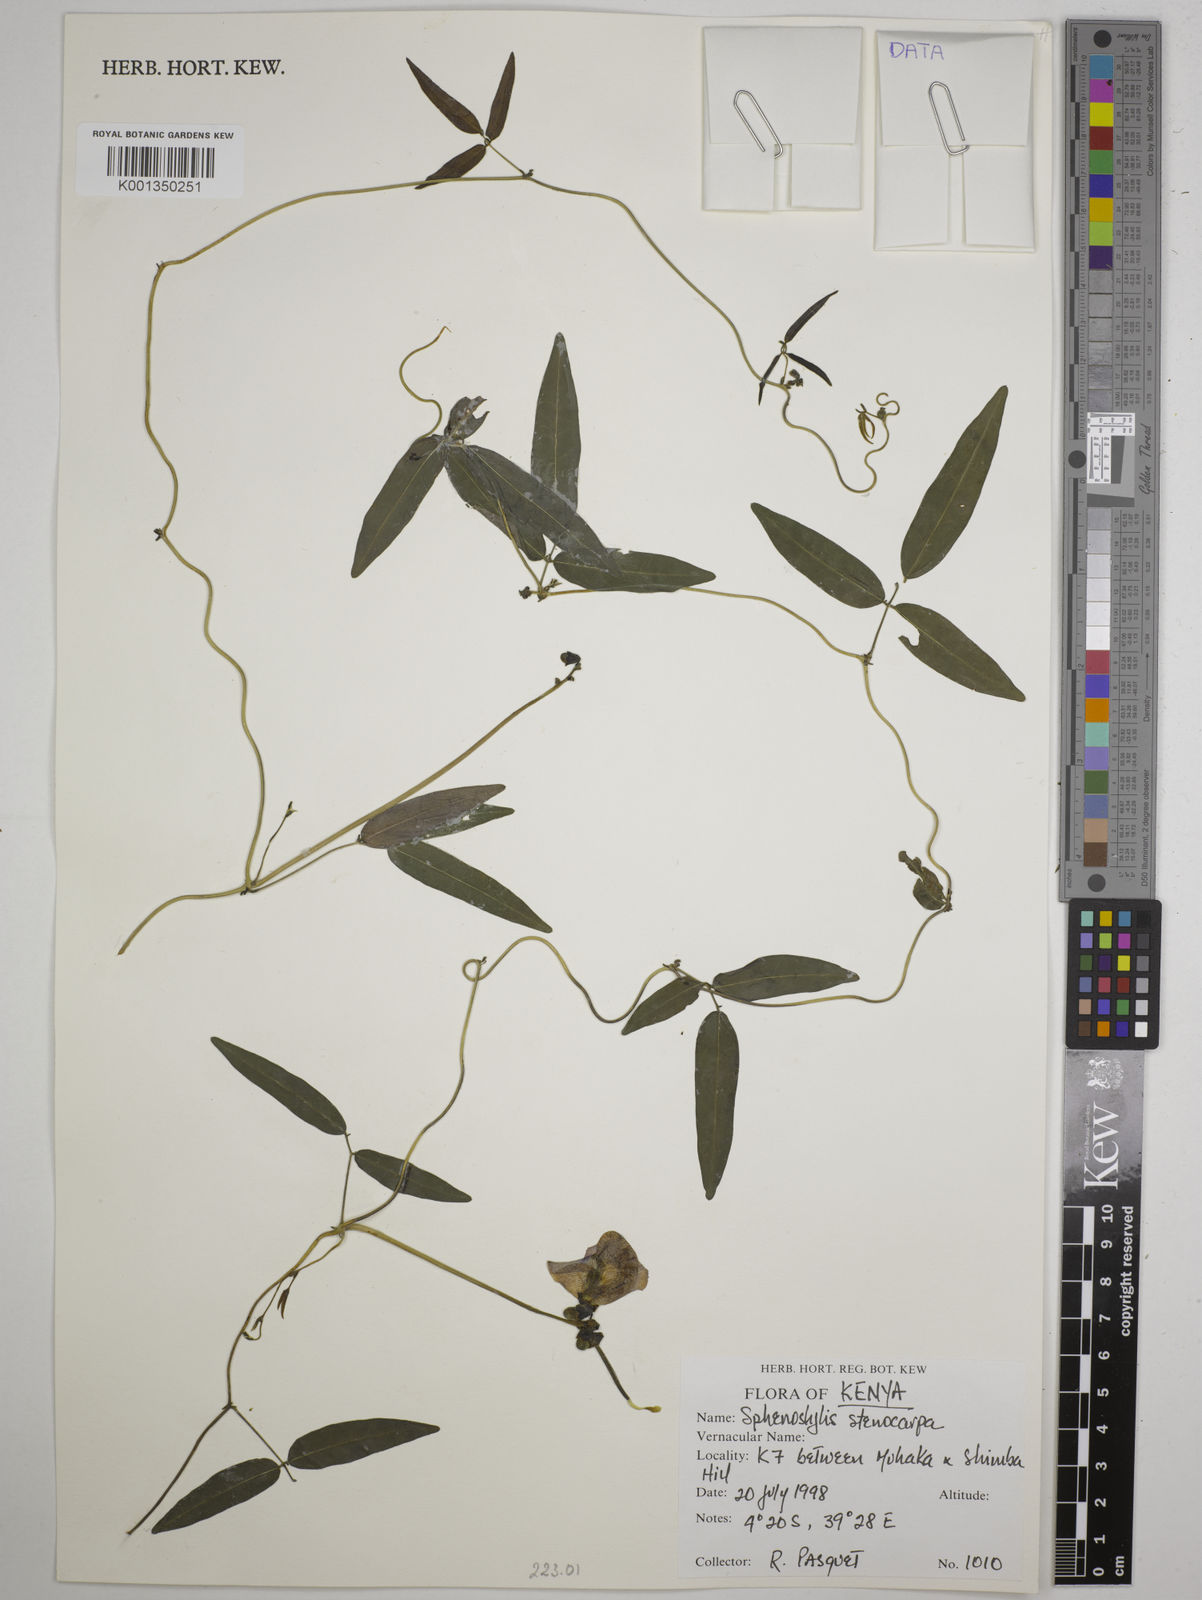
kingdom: Plantae
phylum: Tracheophyta
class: Magnoliopsida
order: Fabales
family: Fabaceae
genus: Sphenostylis
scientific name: Sphenostylis stenocarpa
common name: Yam-pea
